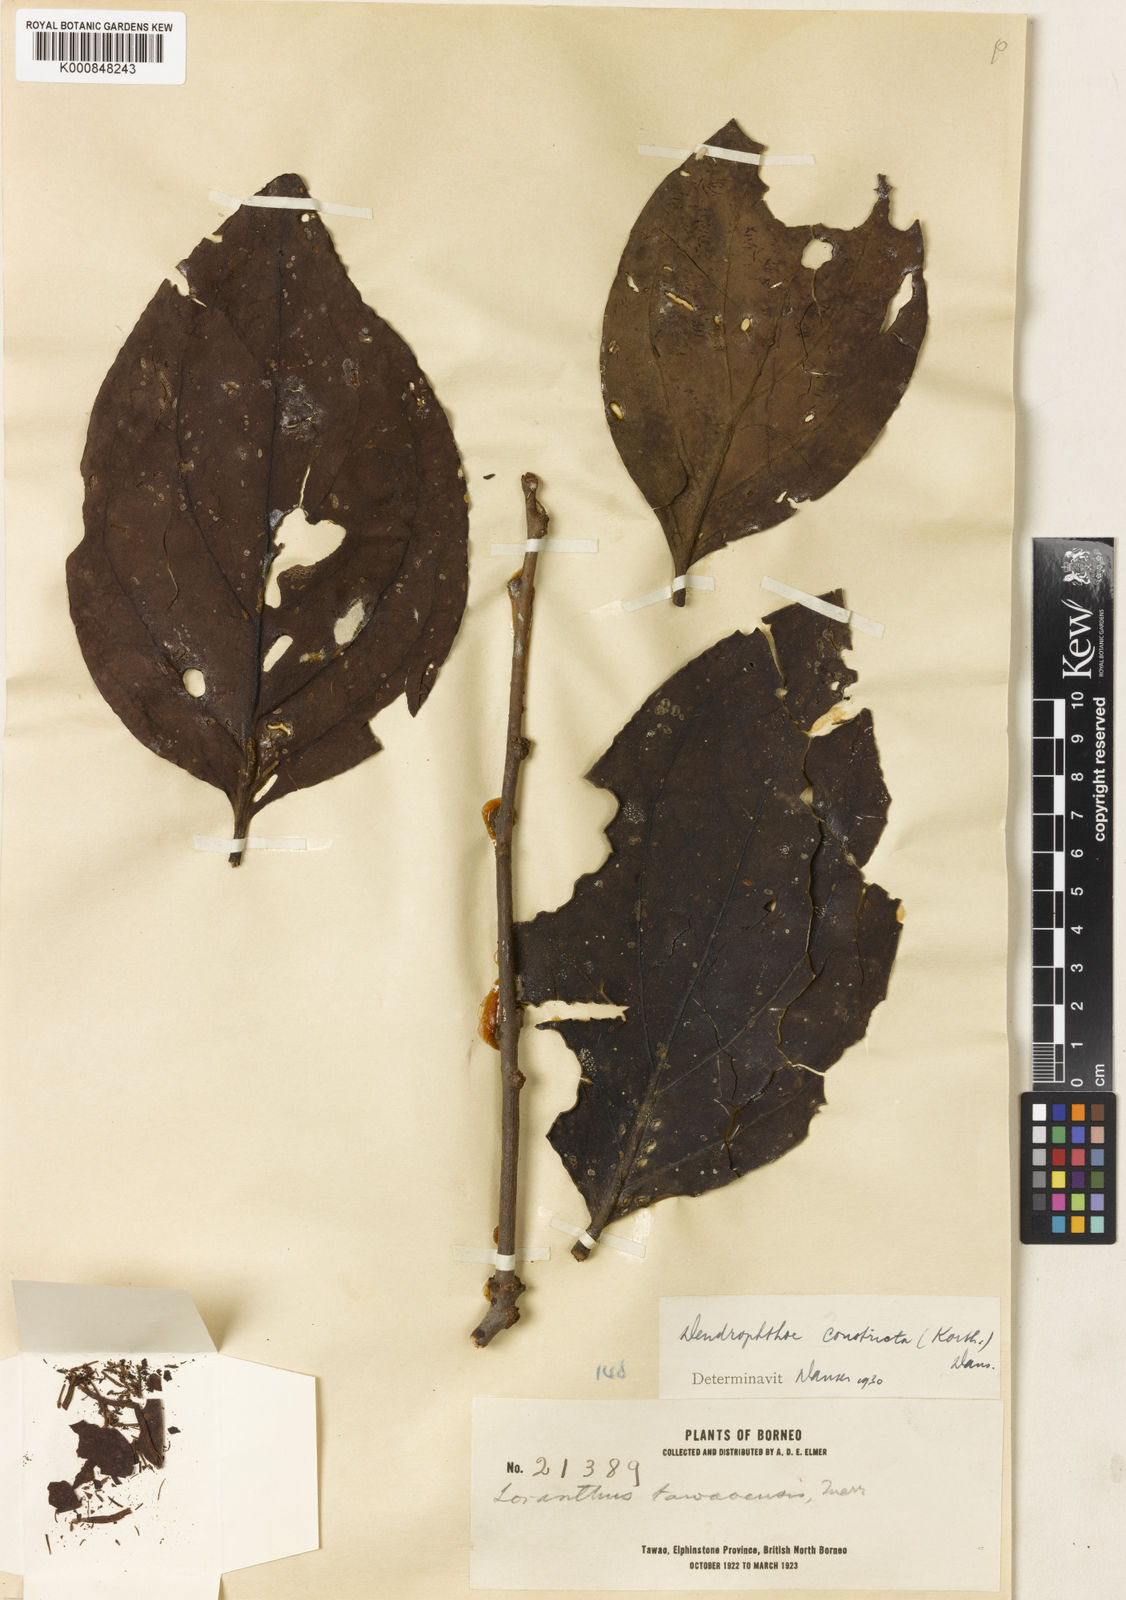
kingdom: Plantae
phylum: Tracheophyta
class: Magnoliopsida
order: Santalales
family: Loranthaceae
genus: Dendrophthoe
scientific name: Dendrophthoe constricta
